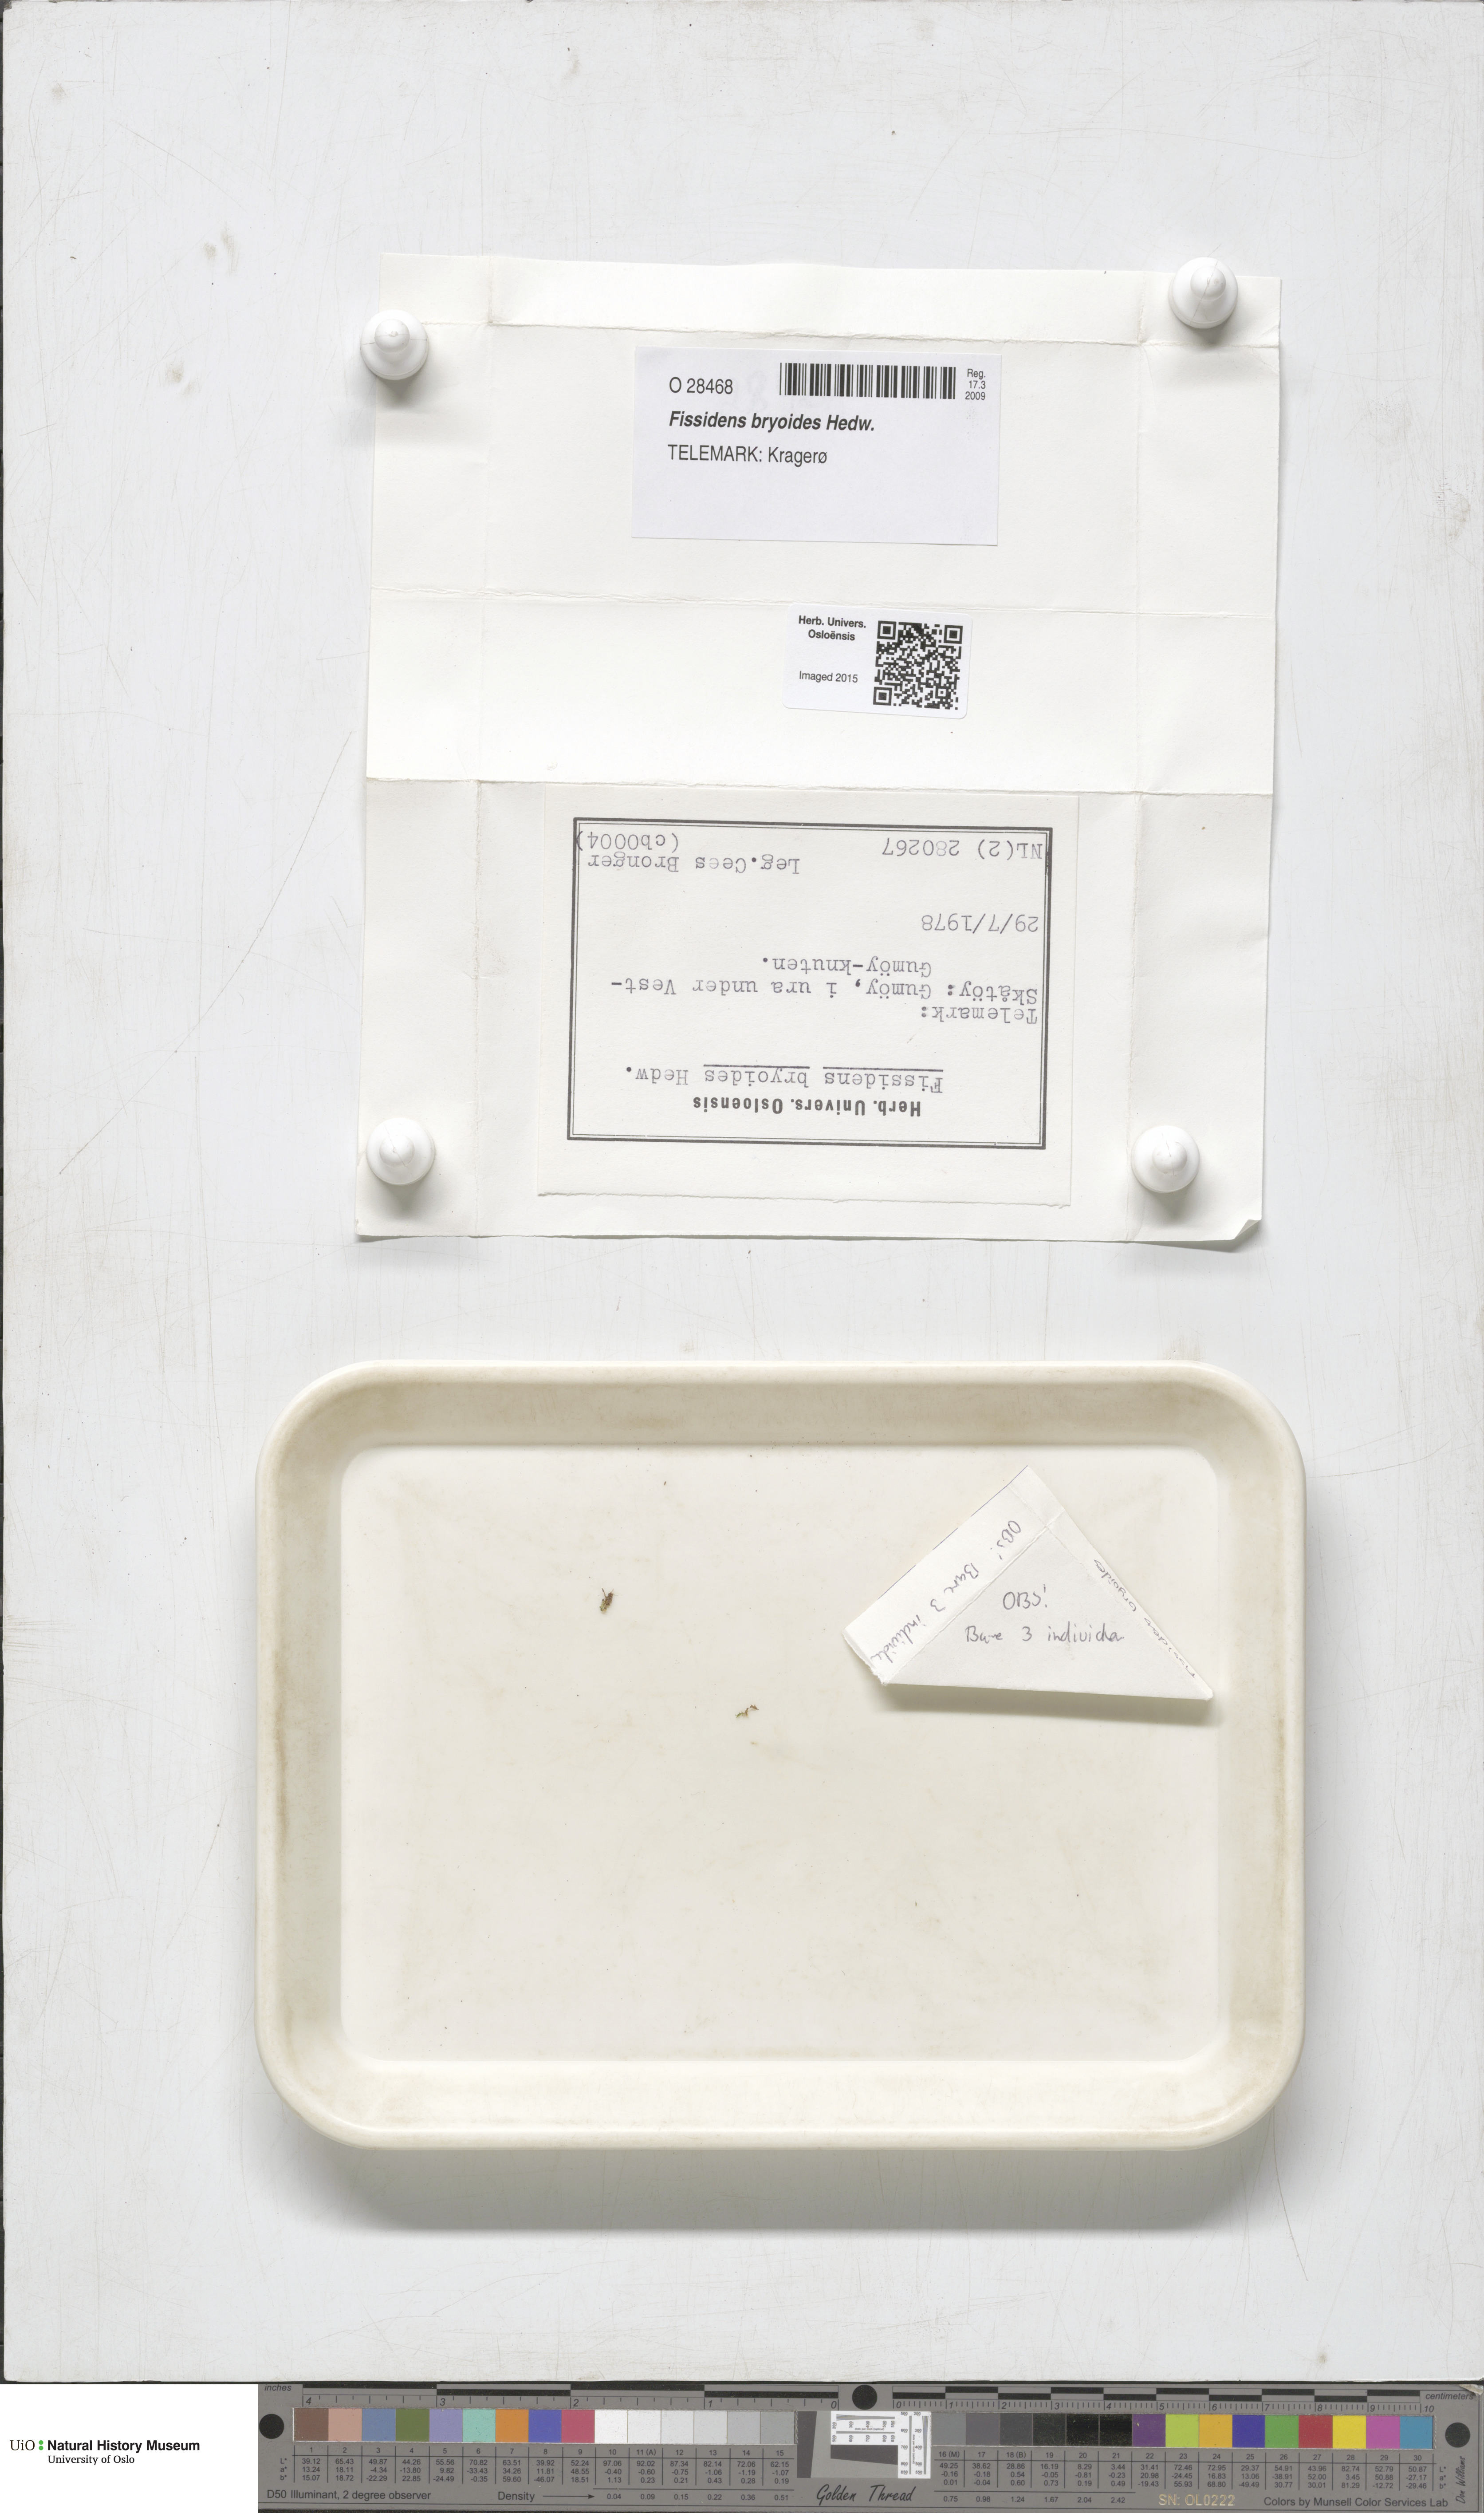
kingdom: Plantae
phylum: Bryophyta
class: Bryopsida
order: Dicranales
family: Fissidentaceae
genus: Fissidens
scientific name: Fissidens bryoides
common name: Lesser pocket moss
